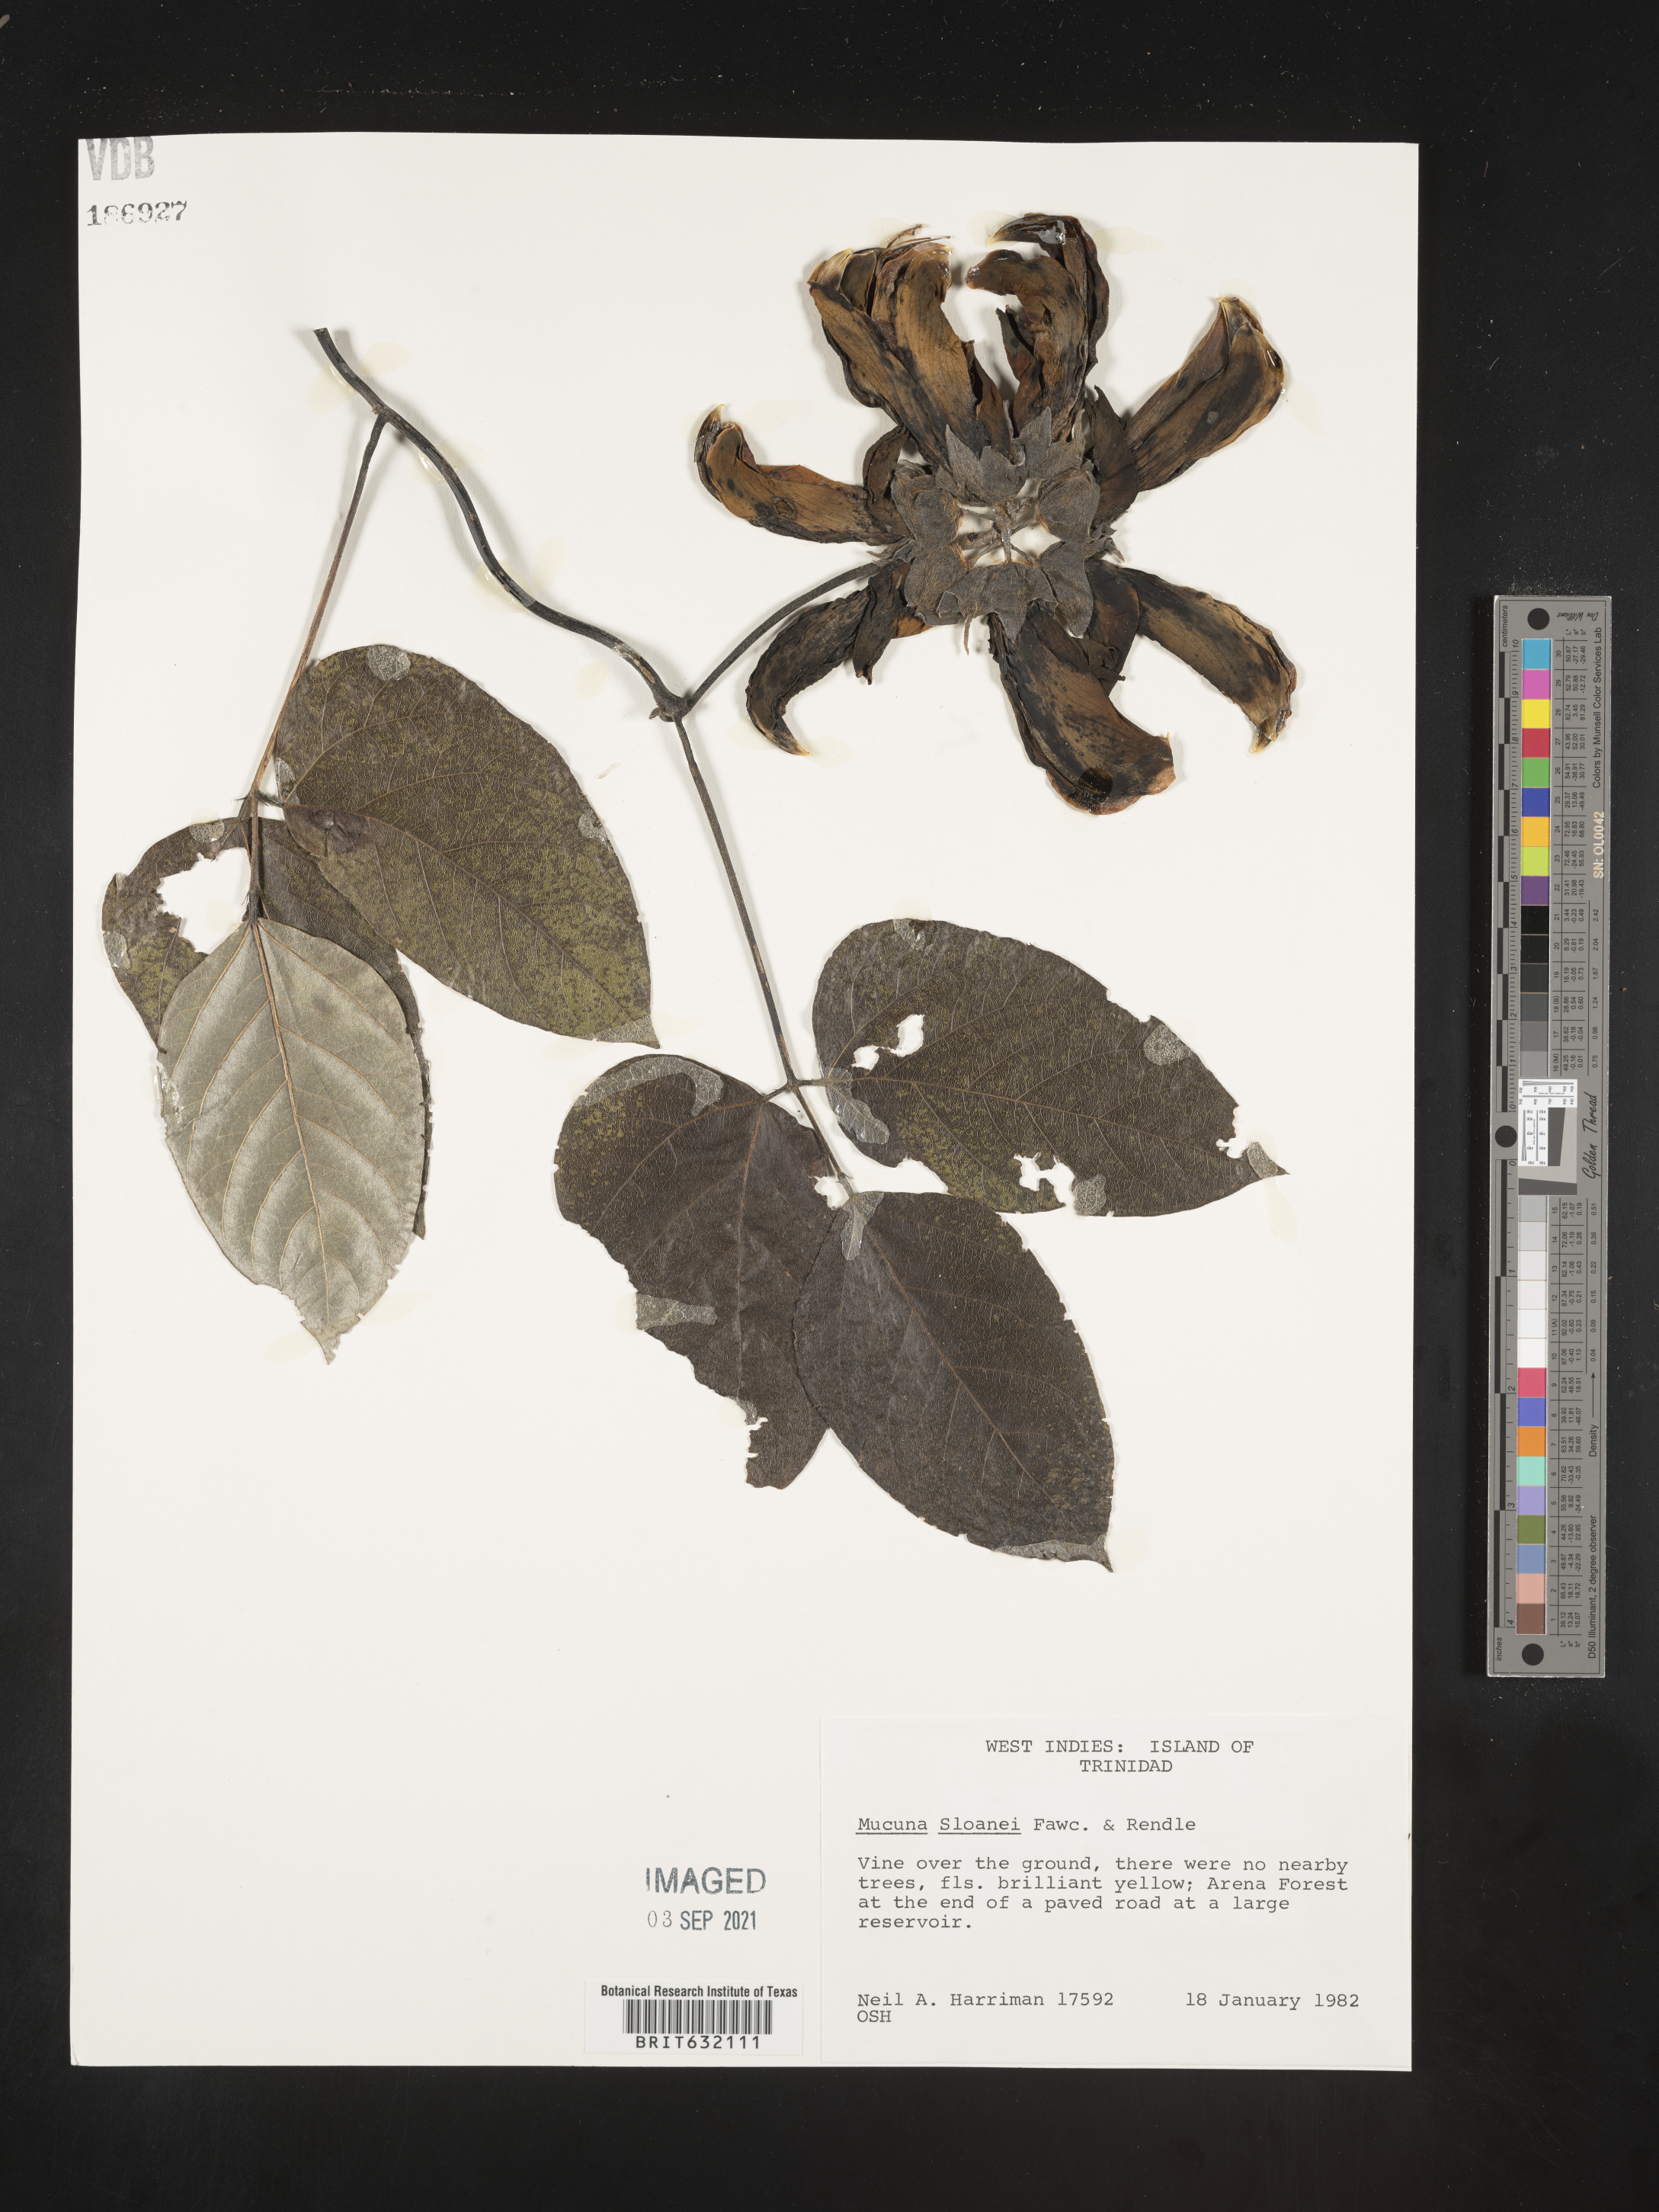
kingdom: Plantae
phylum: Tracheophyta
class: Magnoliopsida
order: Fabales
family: Fabaceae
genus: Mucuna
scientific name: Mucuna
